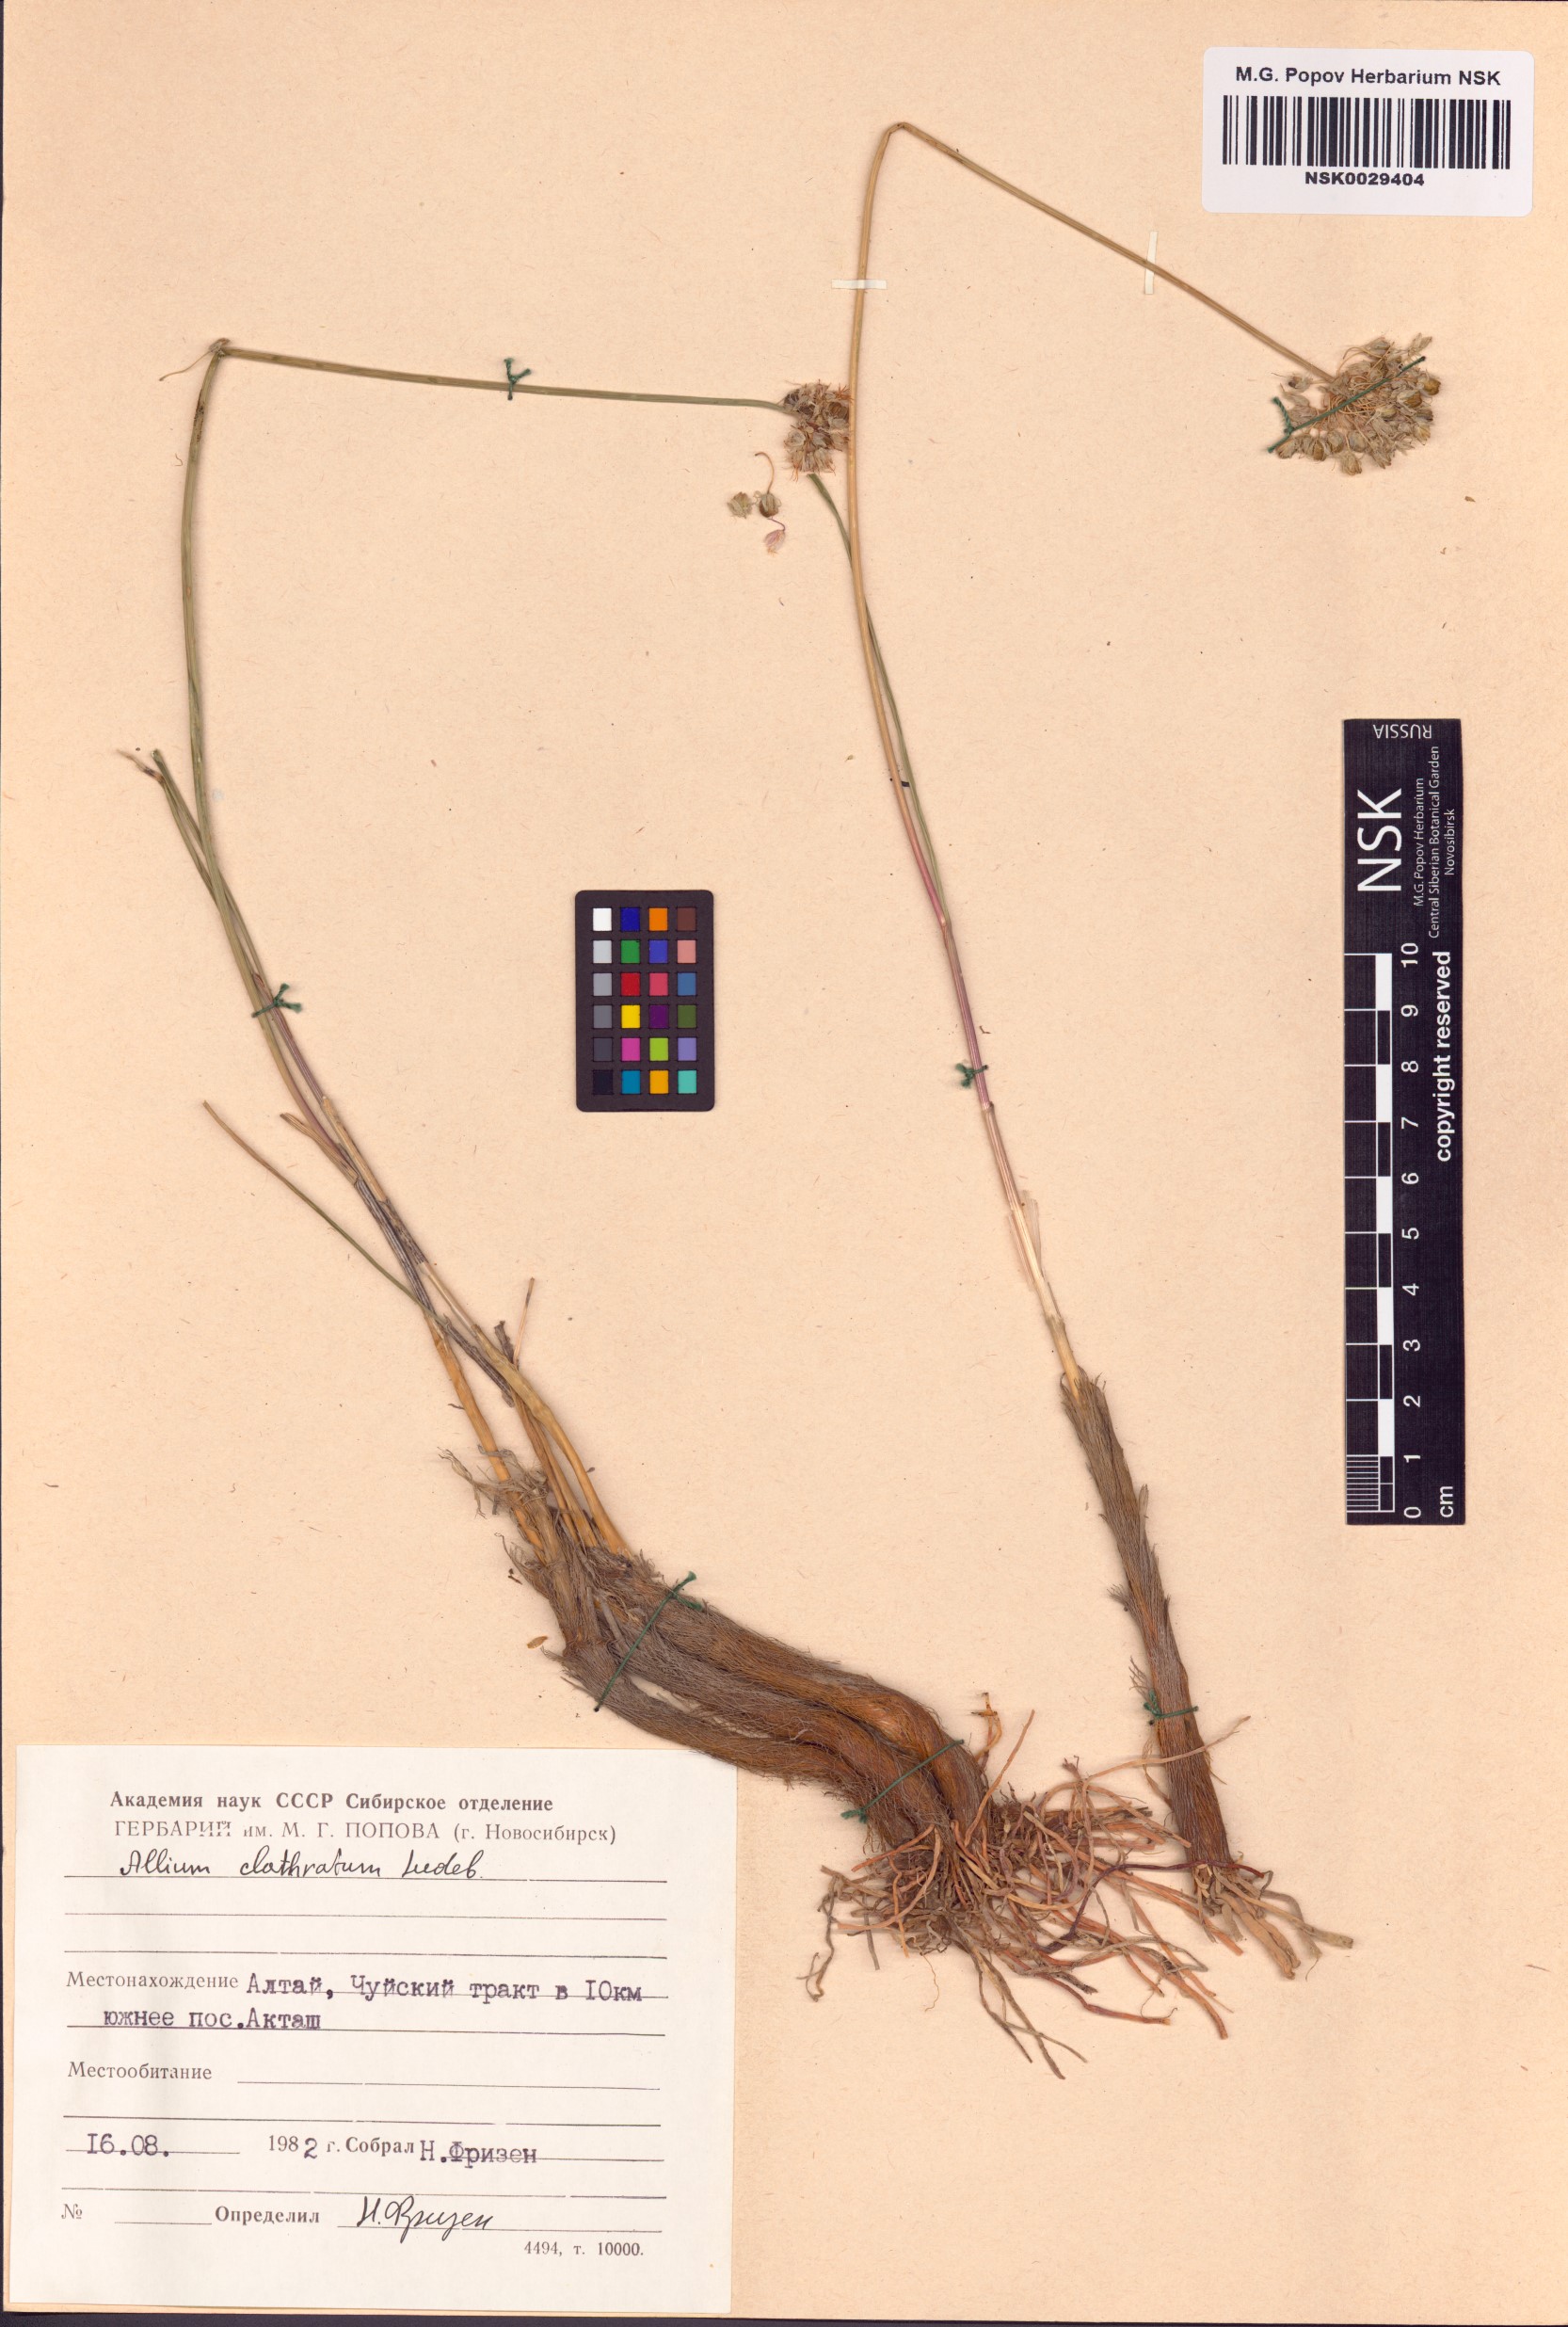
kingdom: Plantae
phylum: Tracheophyta
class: Liliopsida
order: Asparagales
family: Amaryllidaceae
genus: Allium
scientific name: Allium clathratum
